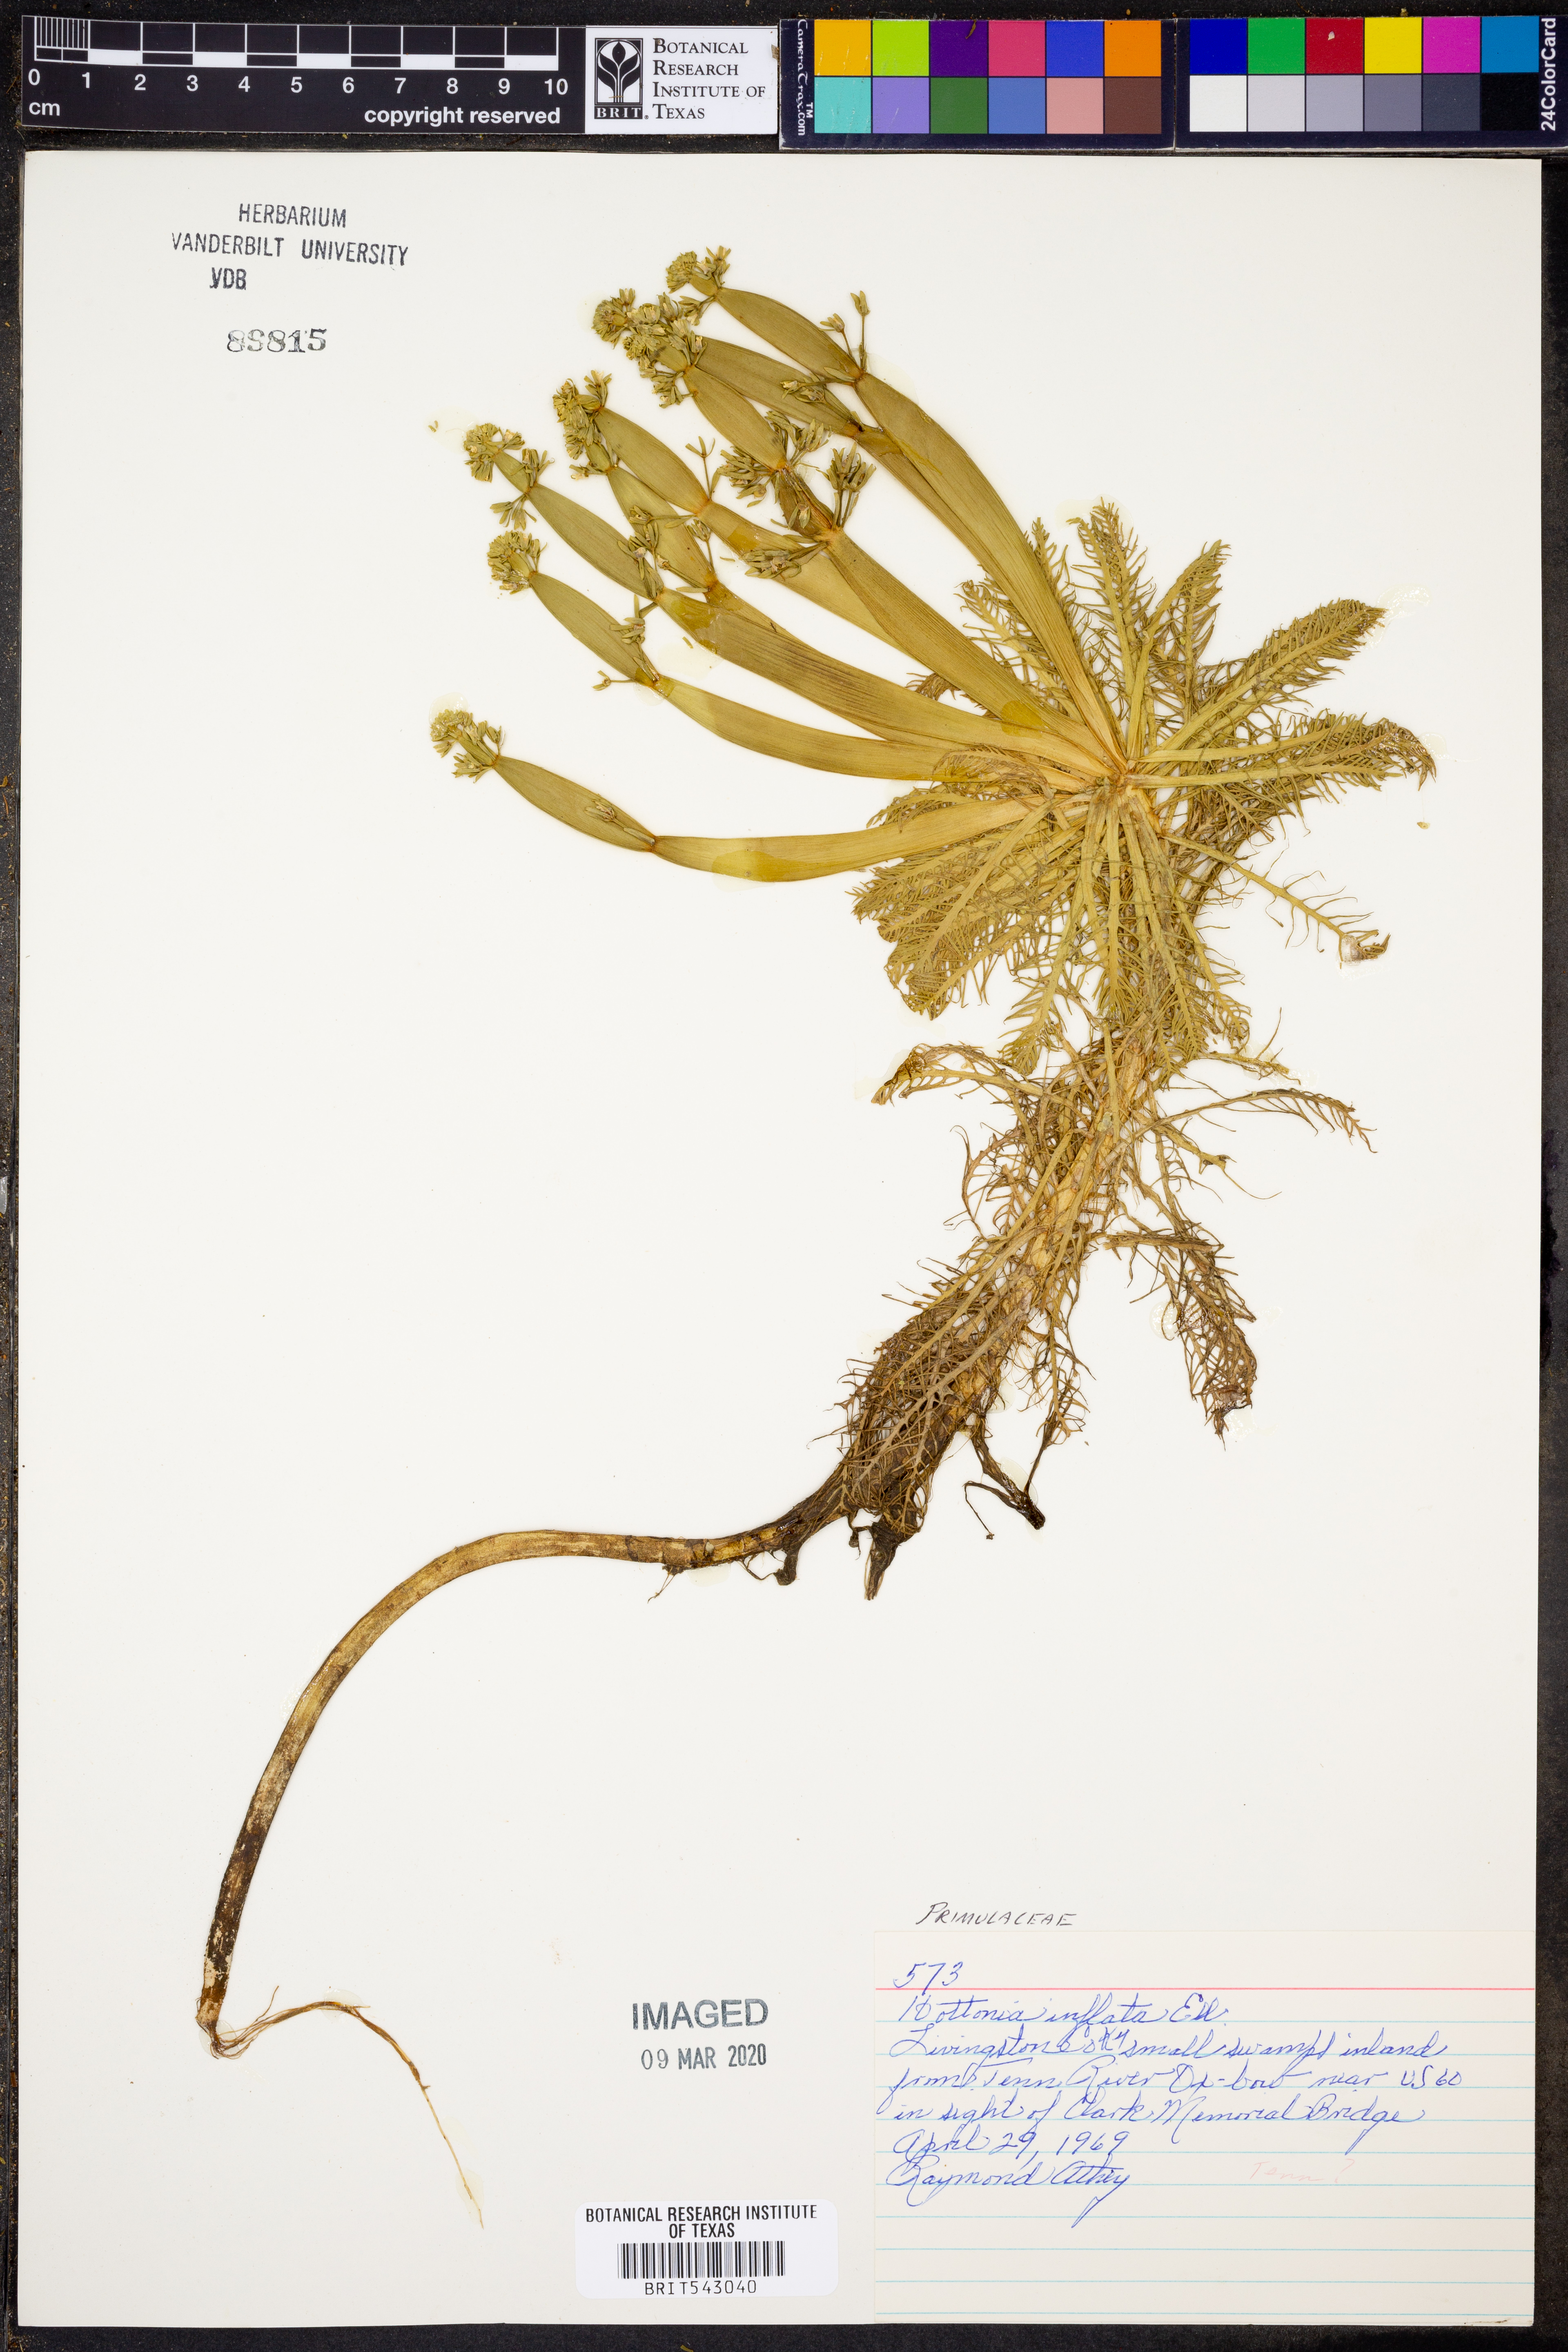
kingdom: Plantae
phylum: Tracheophyta
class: Magnoliopsida
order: Ericales
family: Primulaceae
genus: Hottonia
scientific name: Hottonia inflata
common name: American featherfoil
